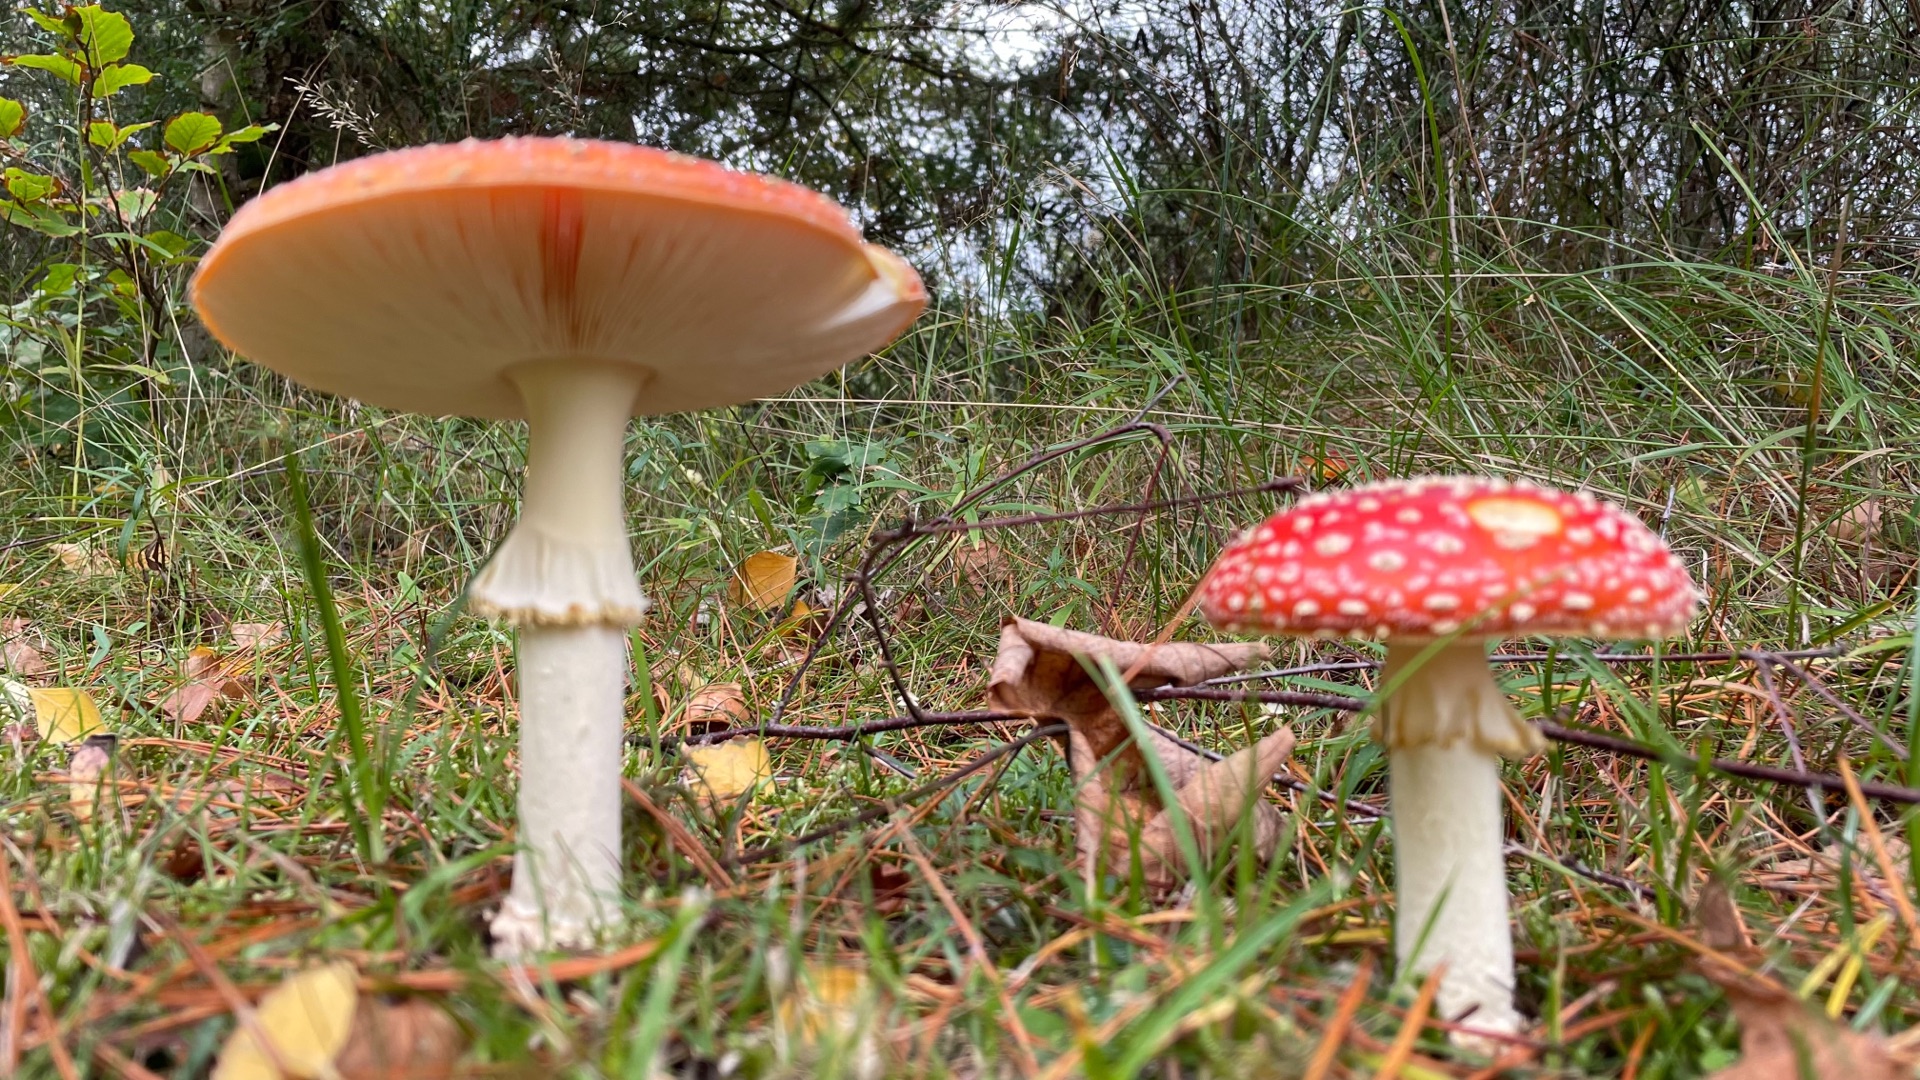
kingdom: Fungi
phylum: Basidiomycota
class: Agaricomycetes
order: Agaricales
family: Amanitaceae
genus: Amanita
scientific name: Amanita muscaria
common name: Rød fluesvamp
